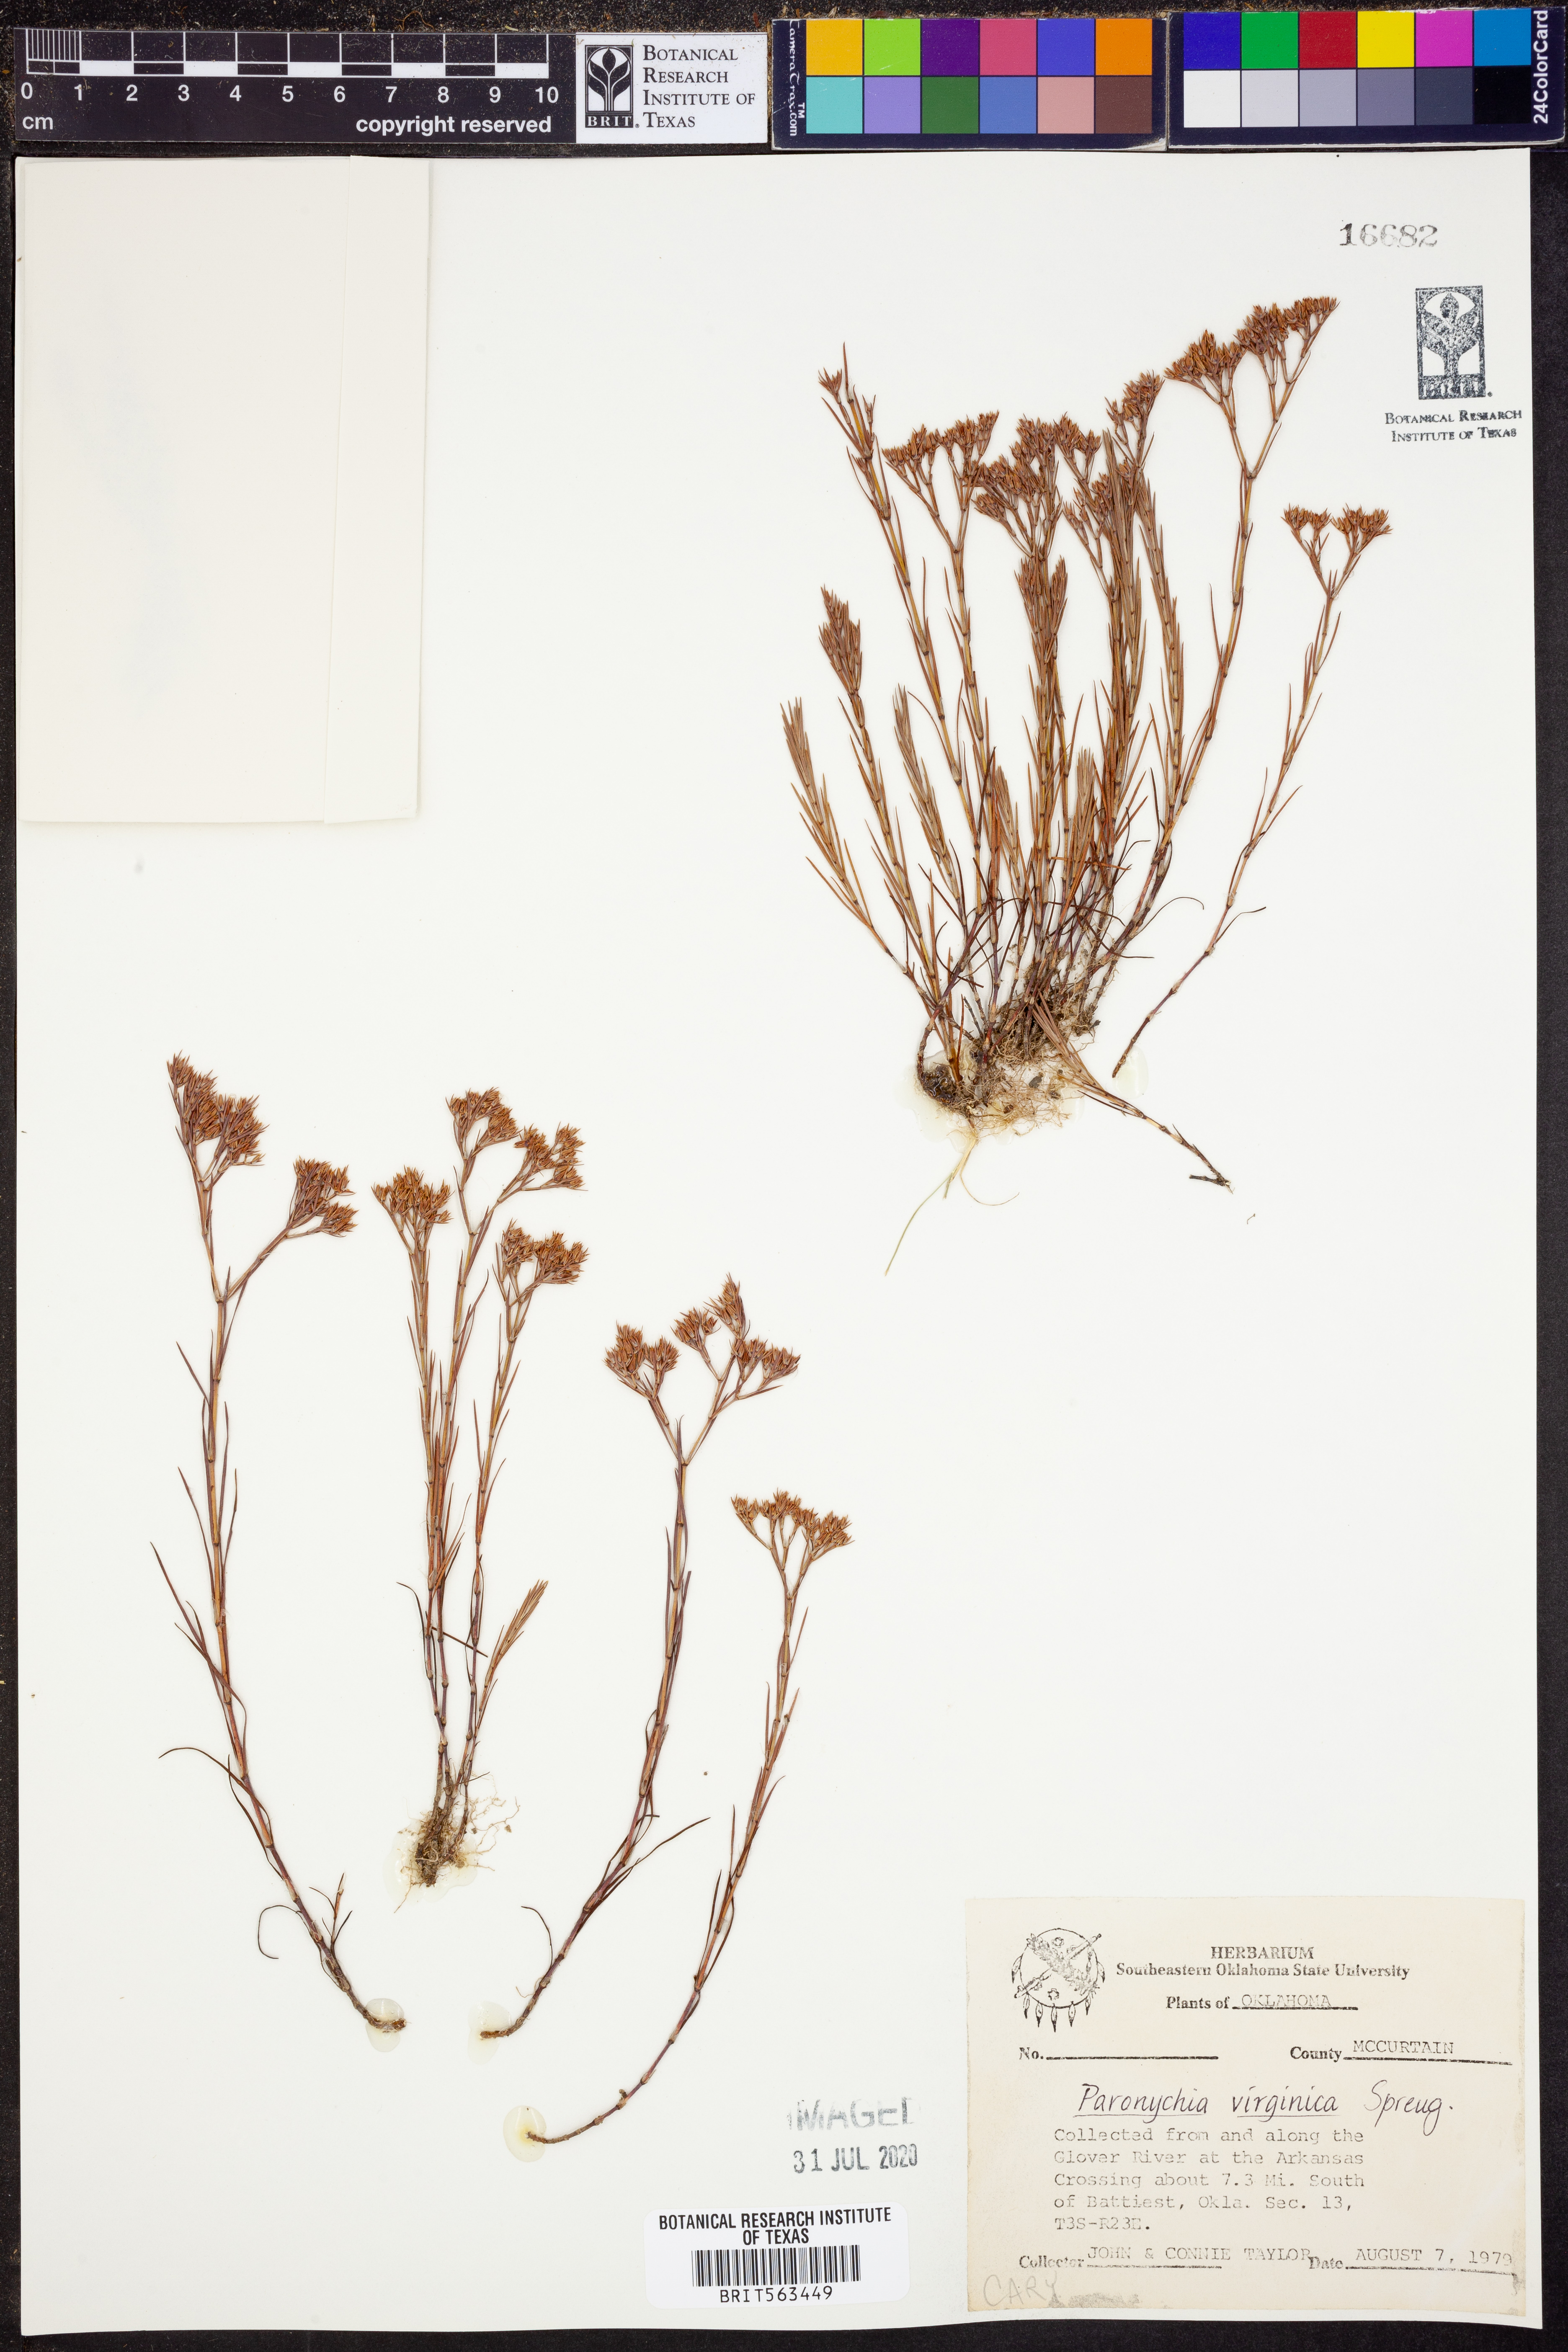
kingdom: Plantae
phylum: Tracheophyta
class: Magnoliopsida
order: Caryophyllales
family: Caryophyllaceae
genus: Paronychia
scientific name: Paronychia virginica
